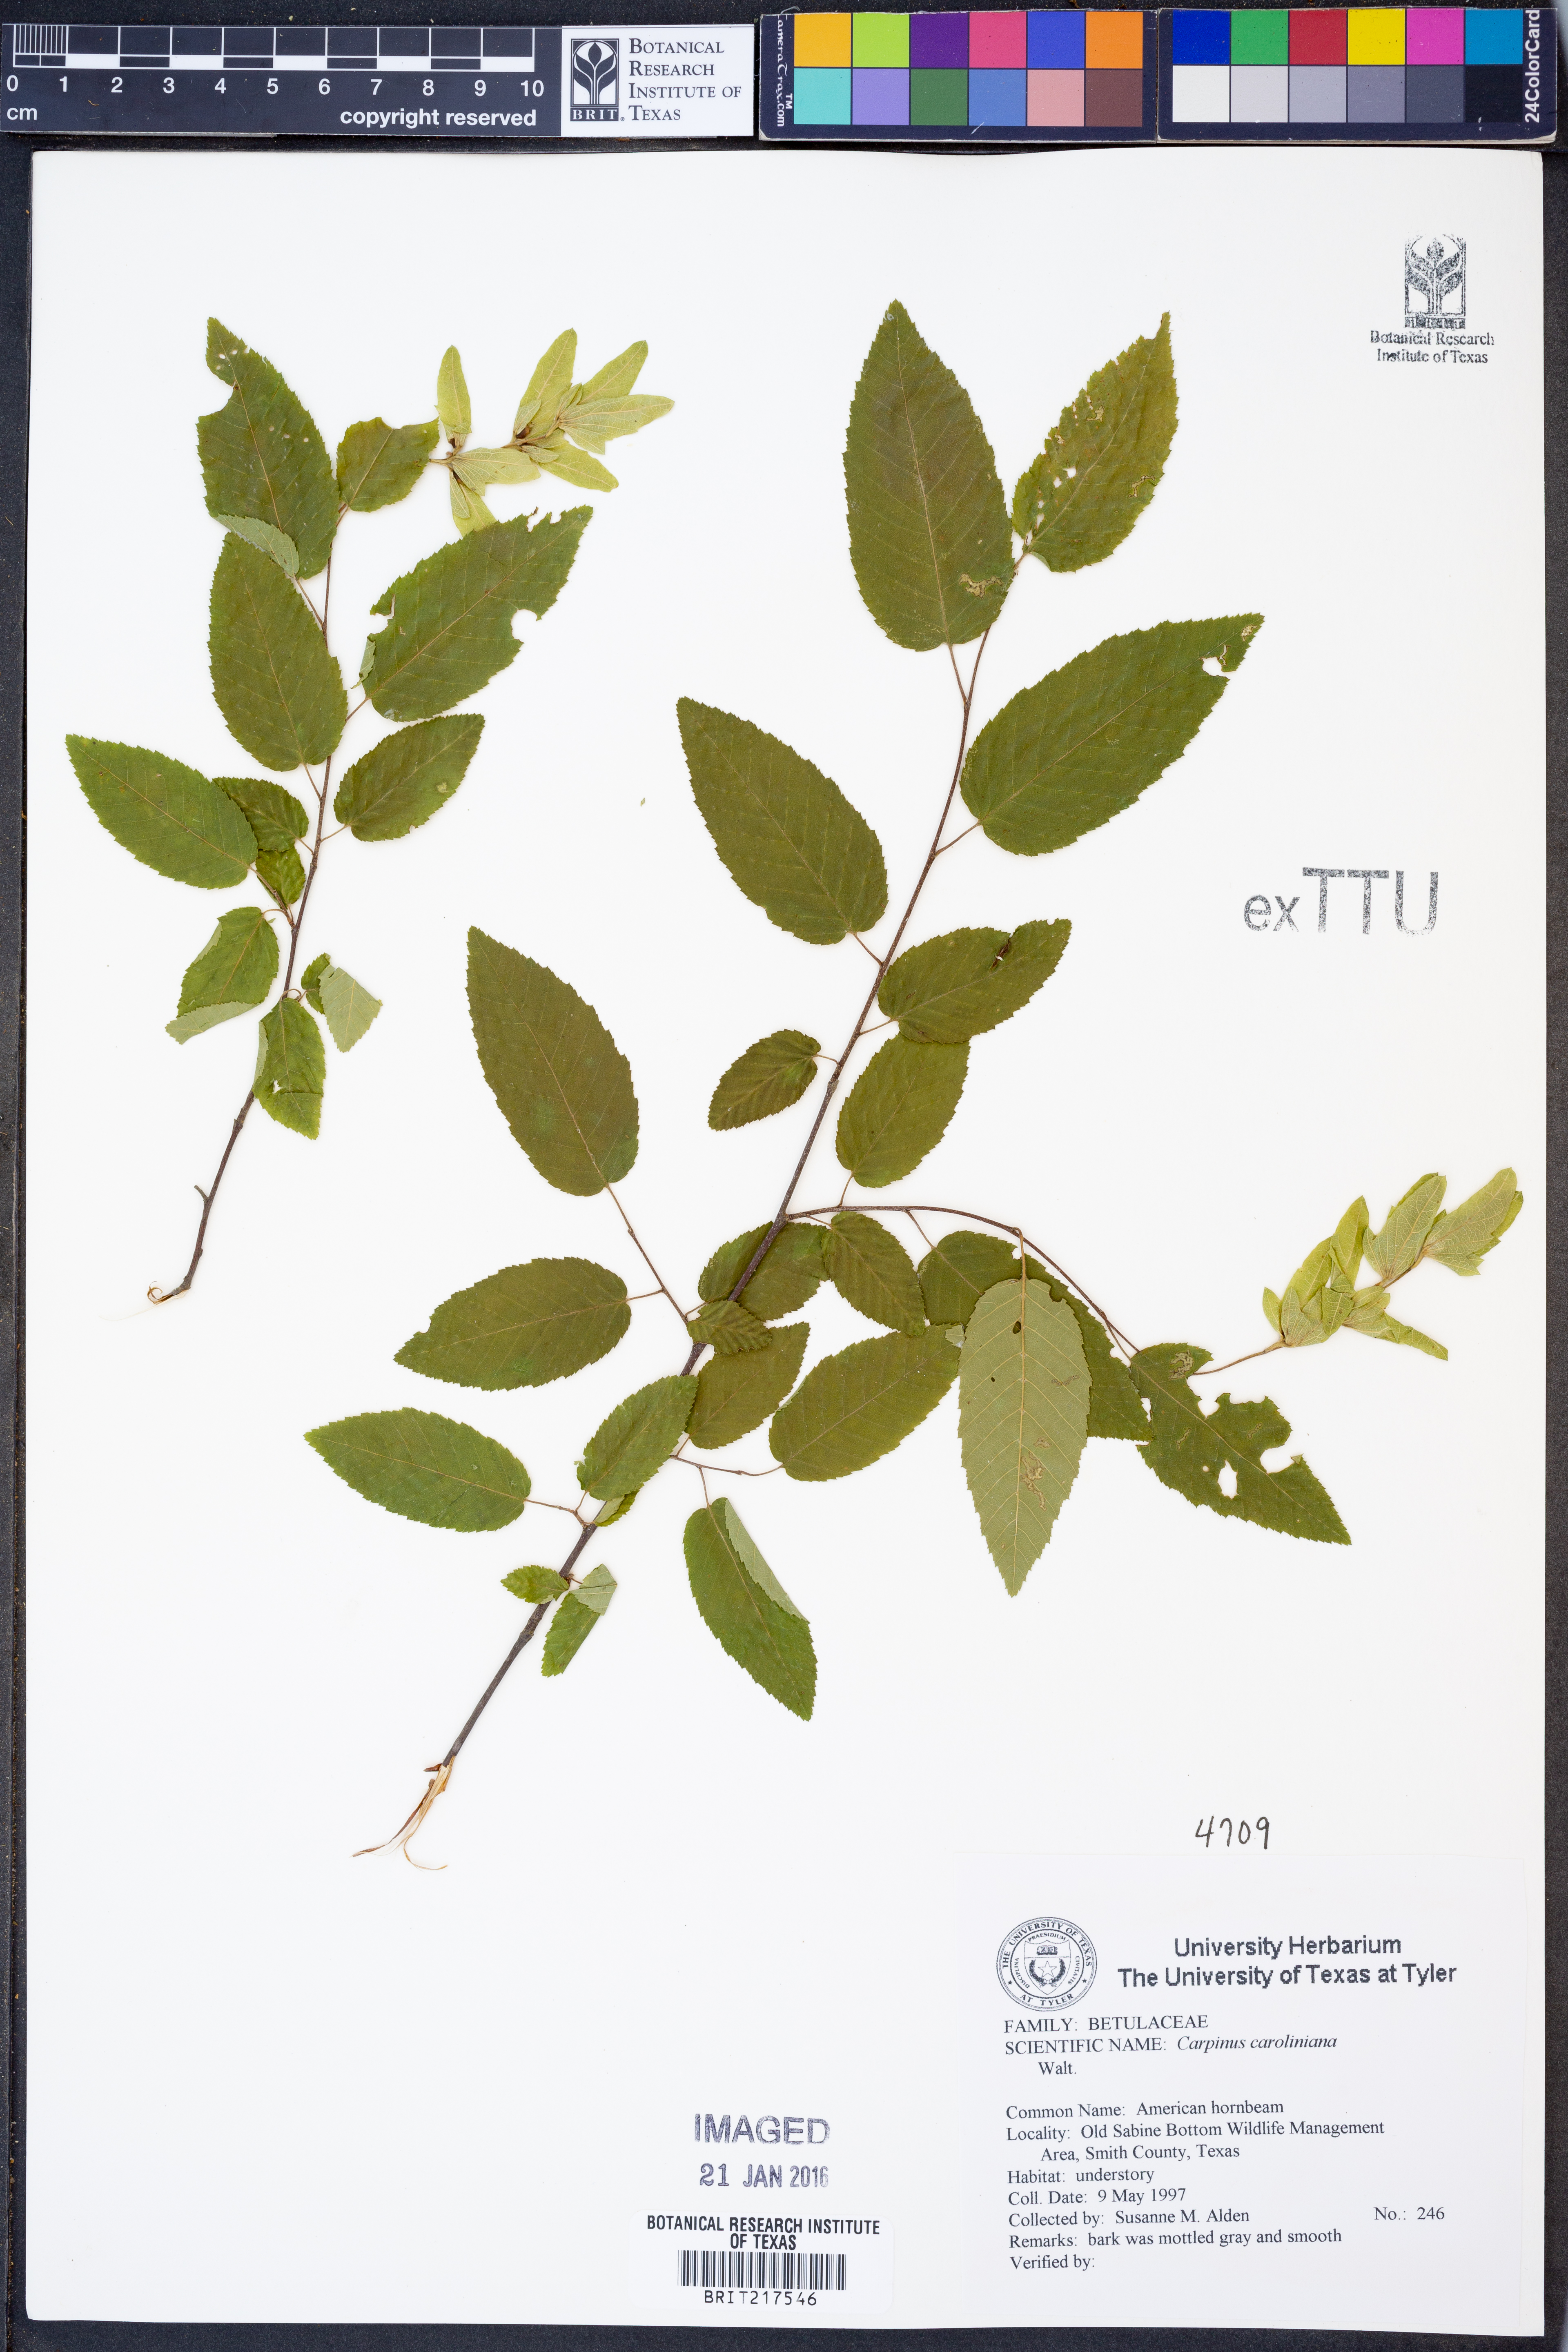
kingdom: Plantae
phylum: Tracheophyta
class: Magnoliopsida
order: Fagales
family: Betulaceae
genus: Carpinus
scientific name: Carpinus caroliniana
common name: American hornbeam
